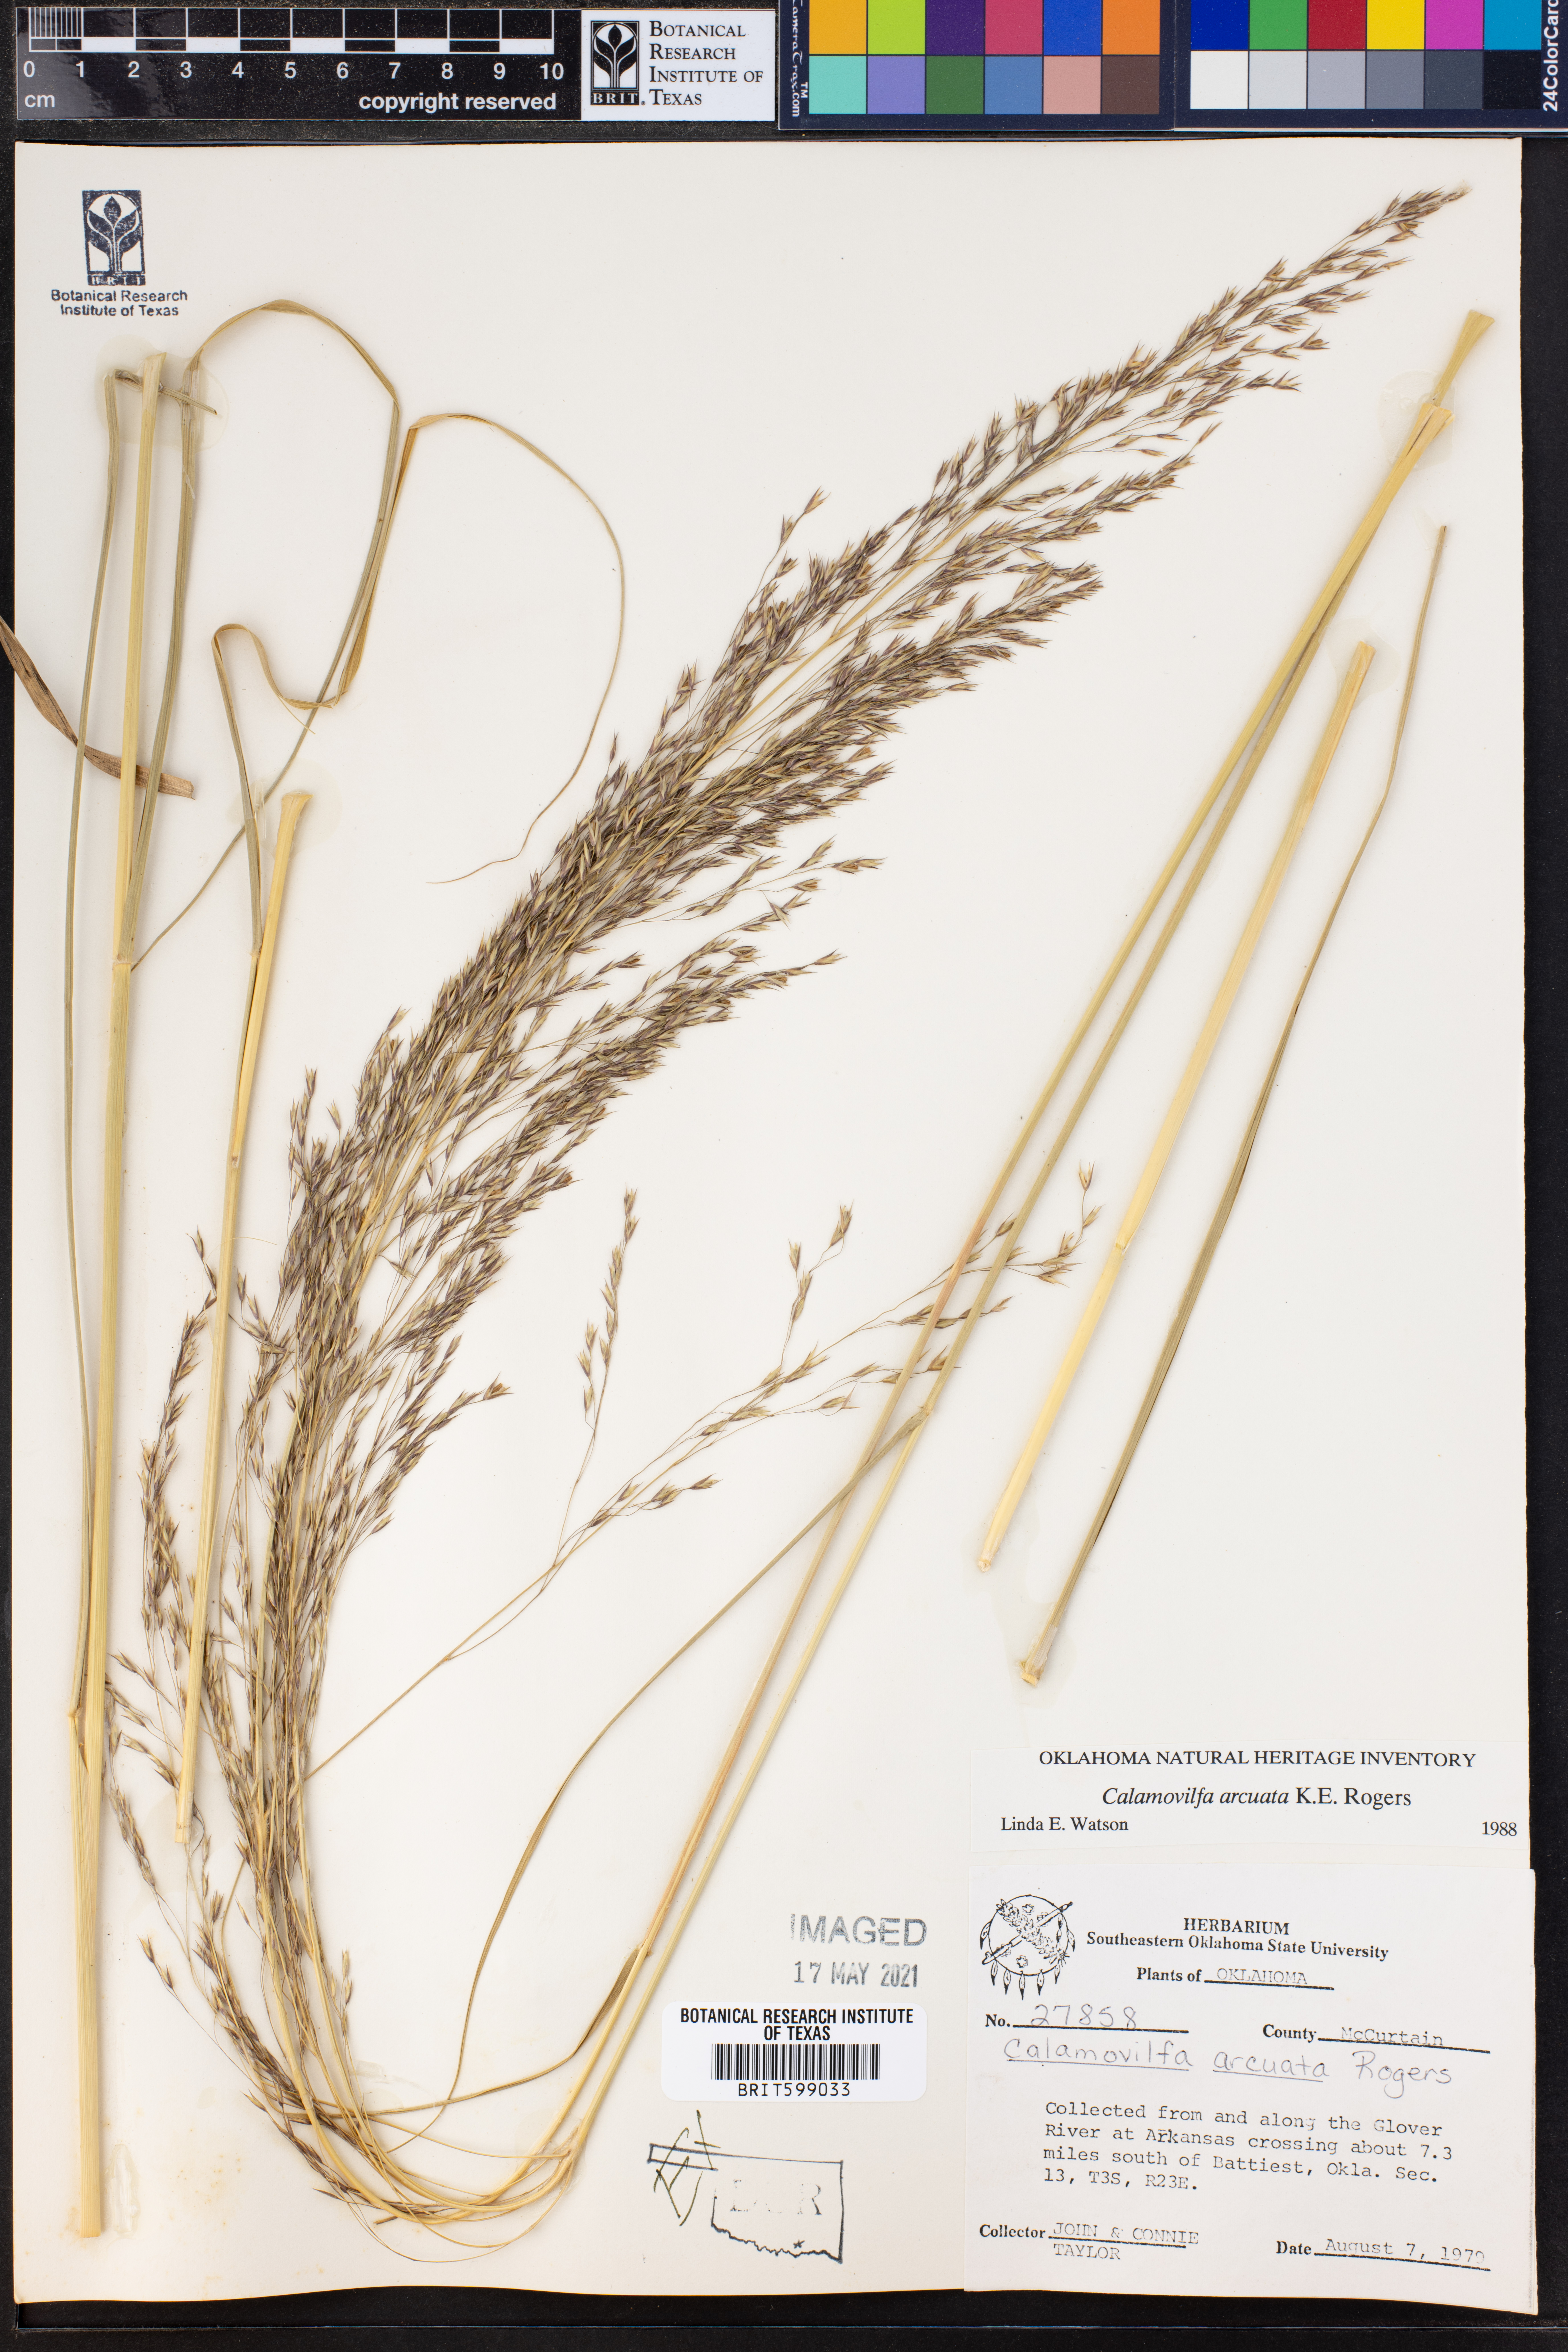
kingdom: Plantae
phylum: Tracheophyta
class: Liliopsida
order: Poales
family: Poaceae
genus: Sporobolus
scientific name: Sporobolus arcuatus
